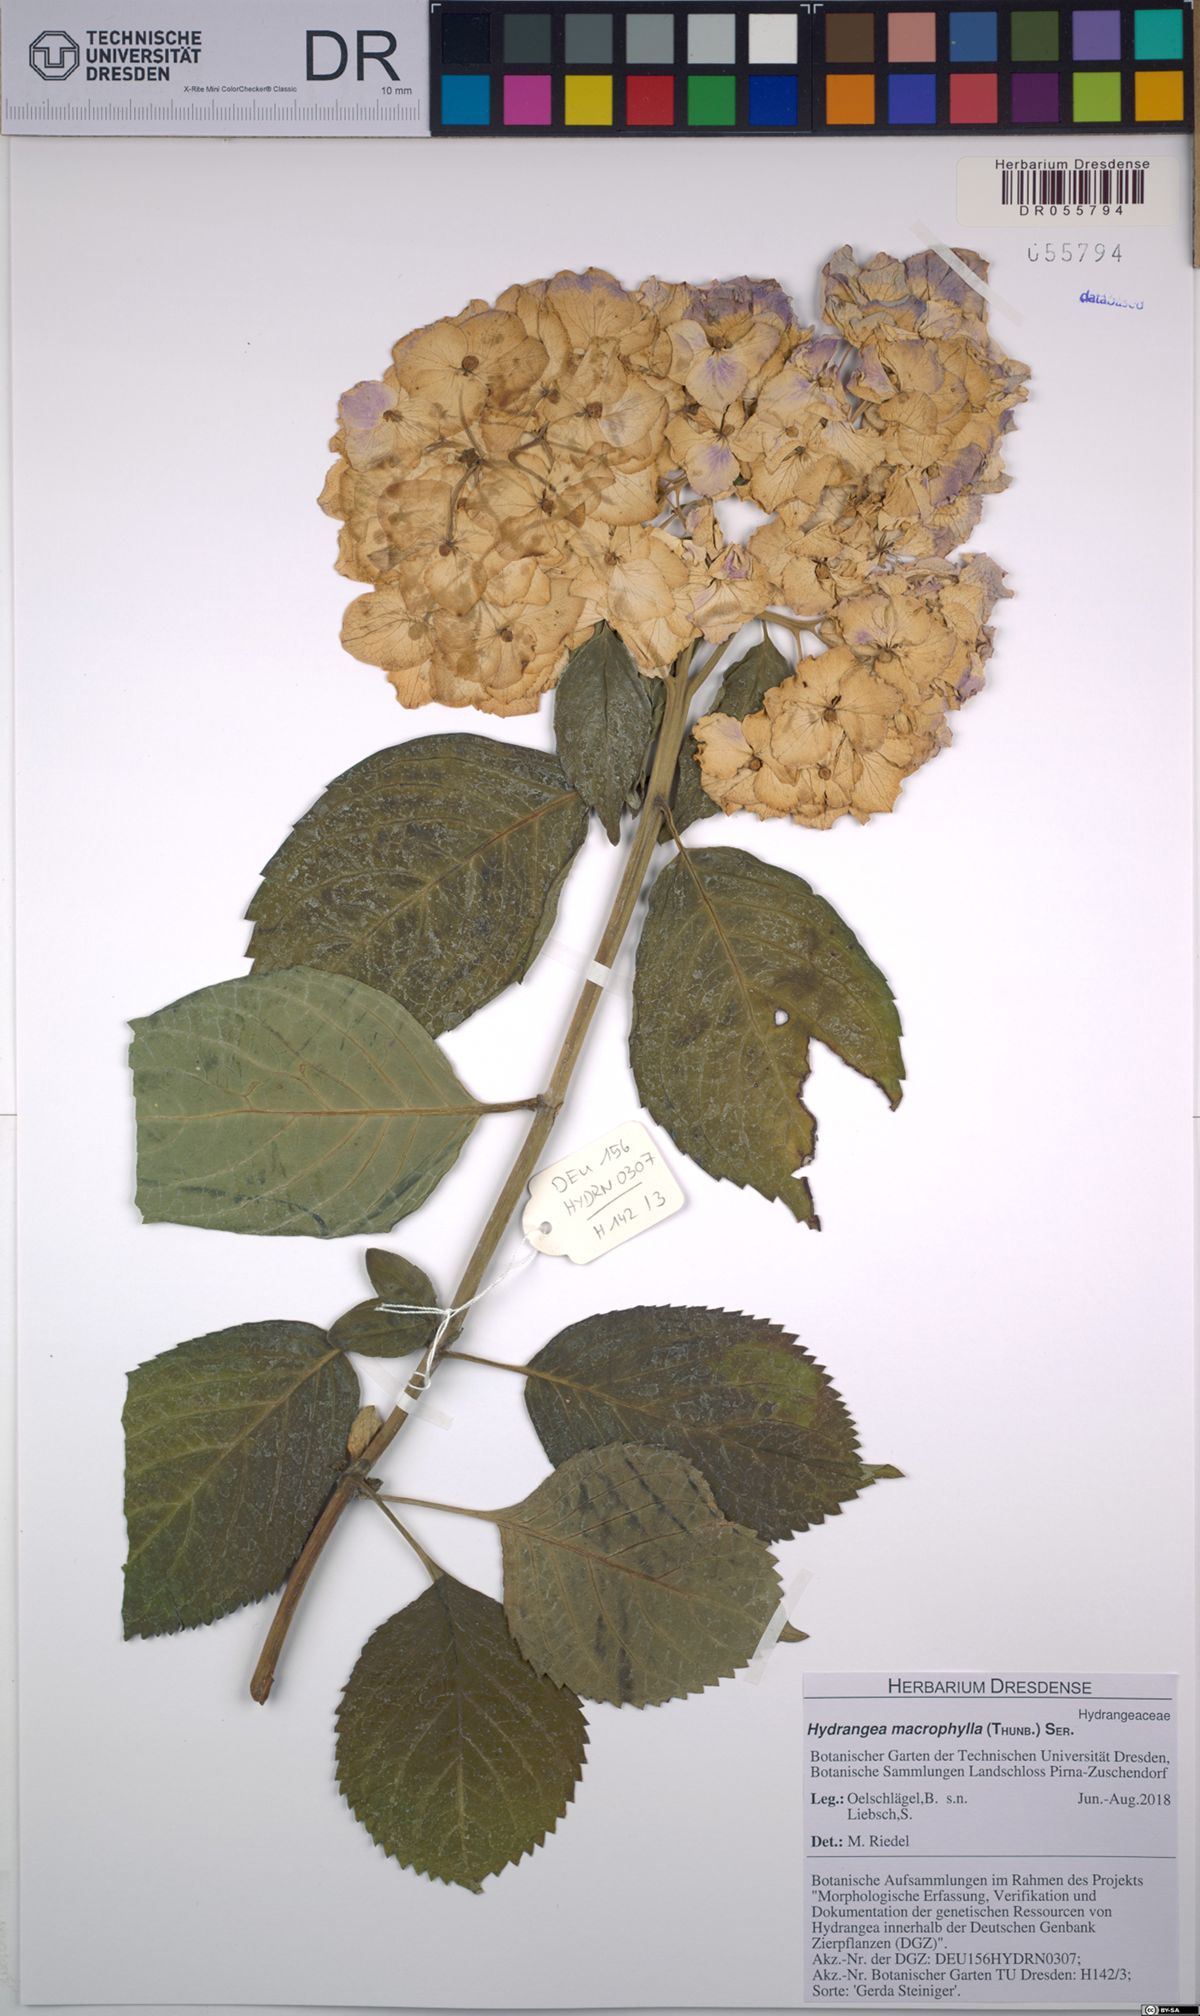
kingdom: Plantae
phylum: Tracheophyta
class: Magnoliopsida
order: Cornales
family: Hydrangeaceae
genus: Hydrangea
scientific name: Hydrangea macrophylla
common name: Hydrangea
